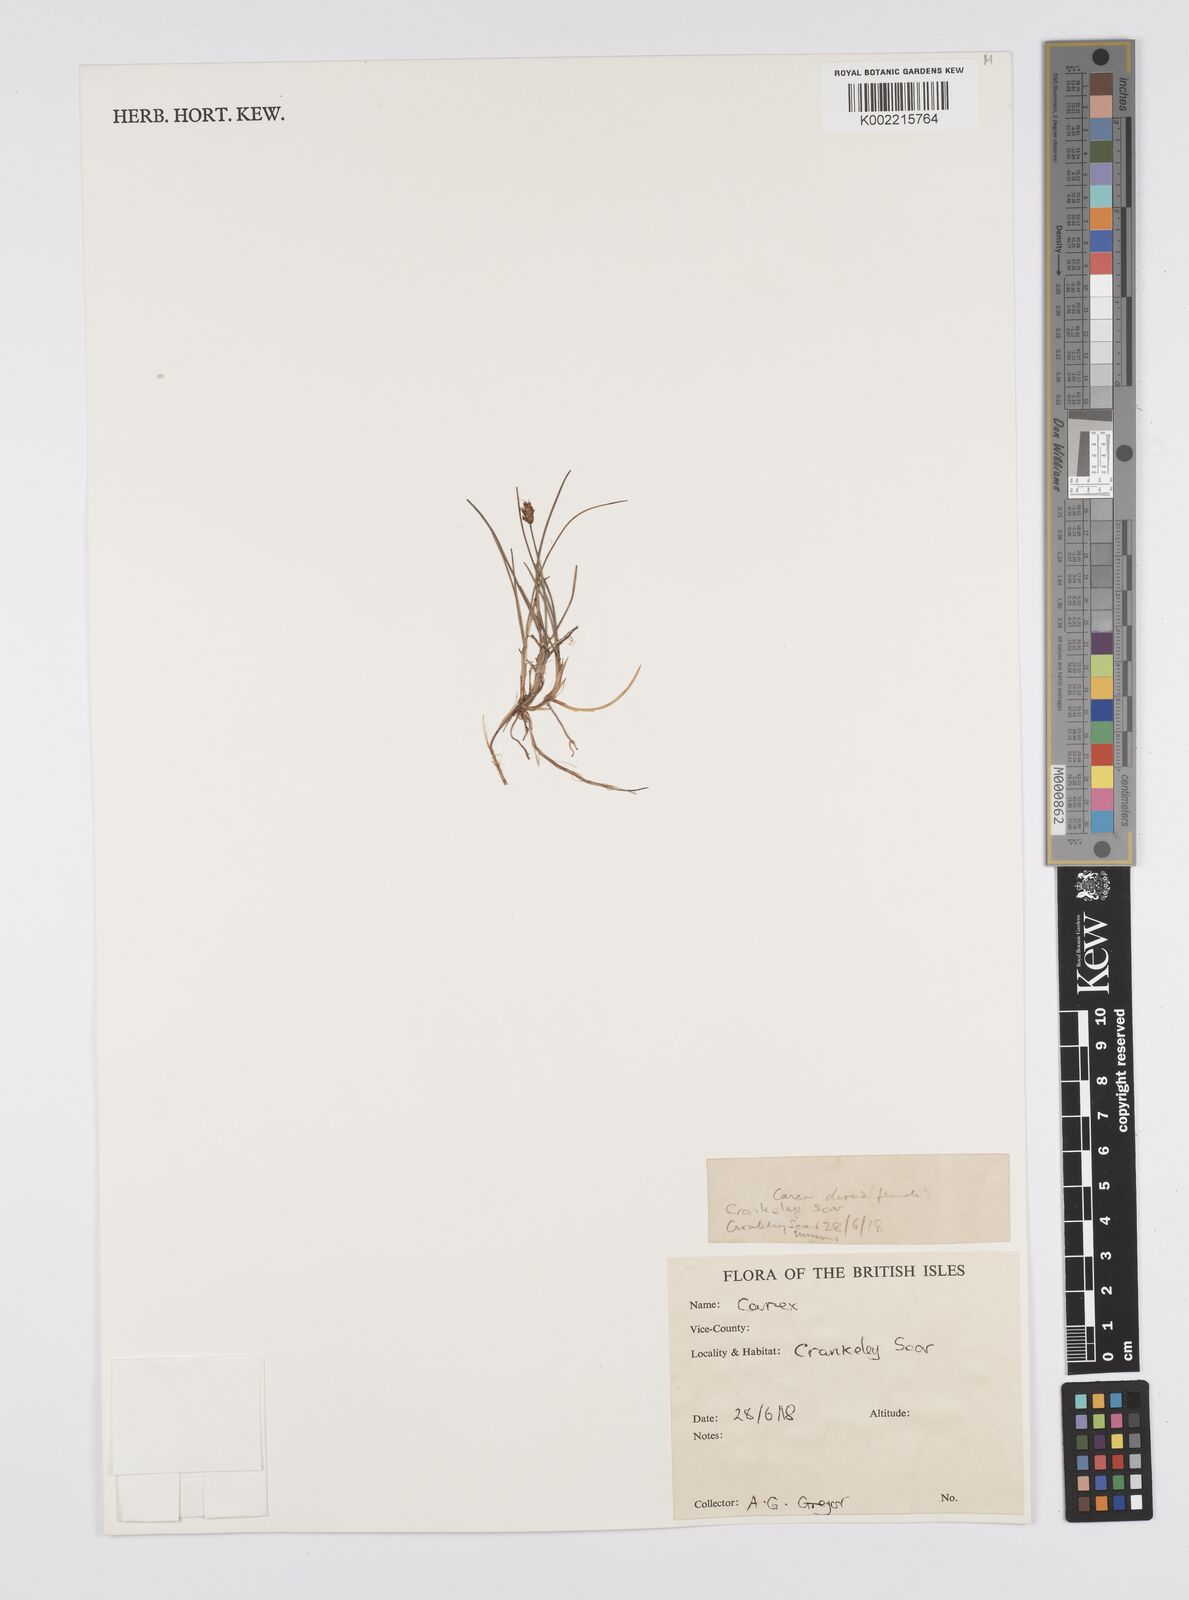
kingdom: Plantae
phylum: Tracheophyta
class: Liliopsida
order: Poales
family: Cyperaceae
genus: Carex
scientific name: Carex
